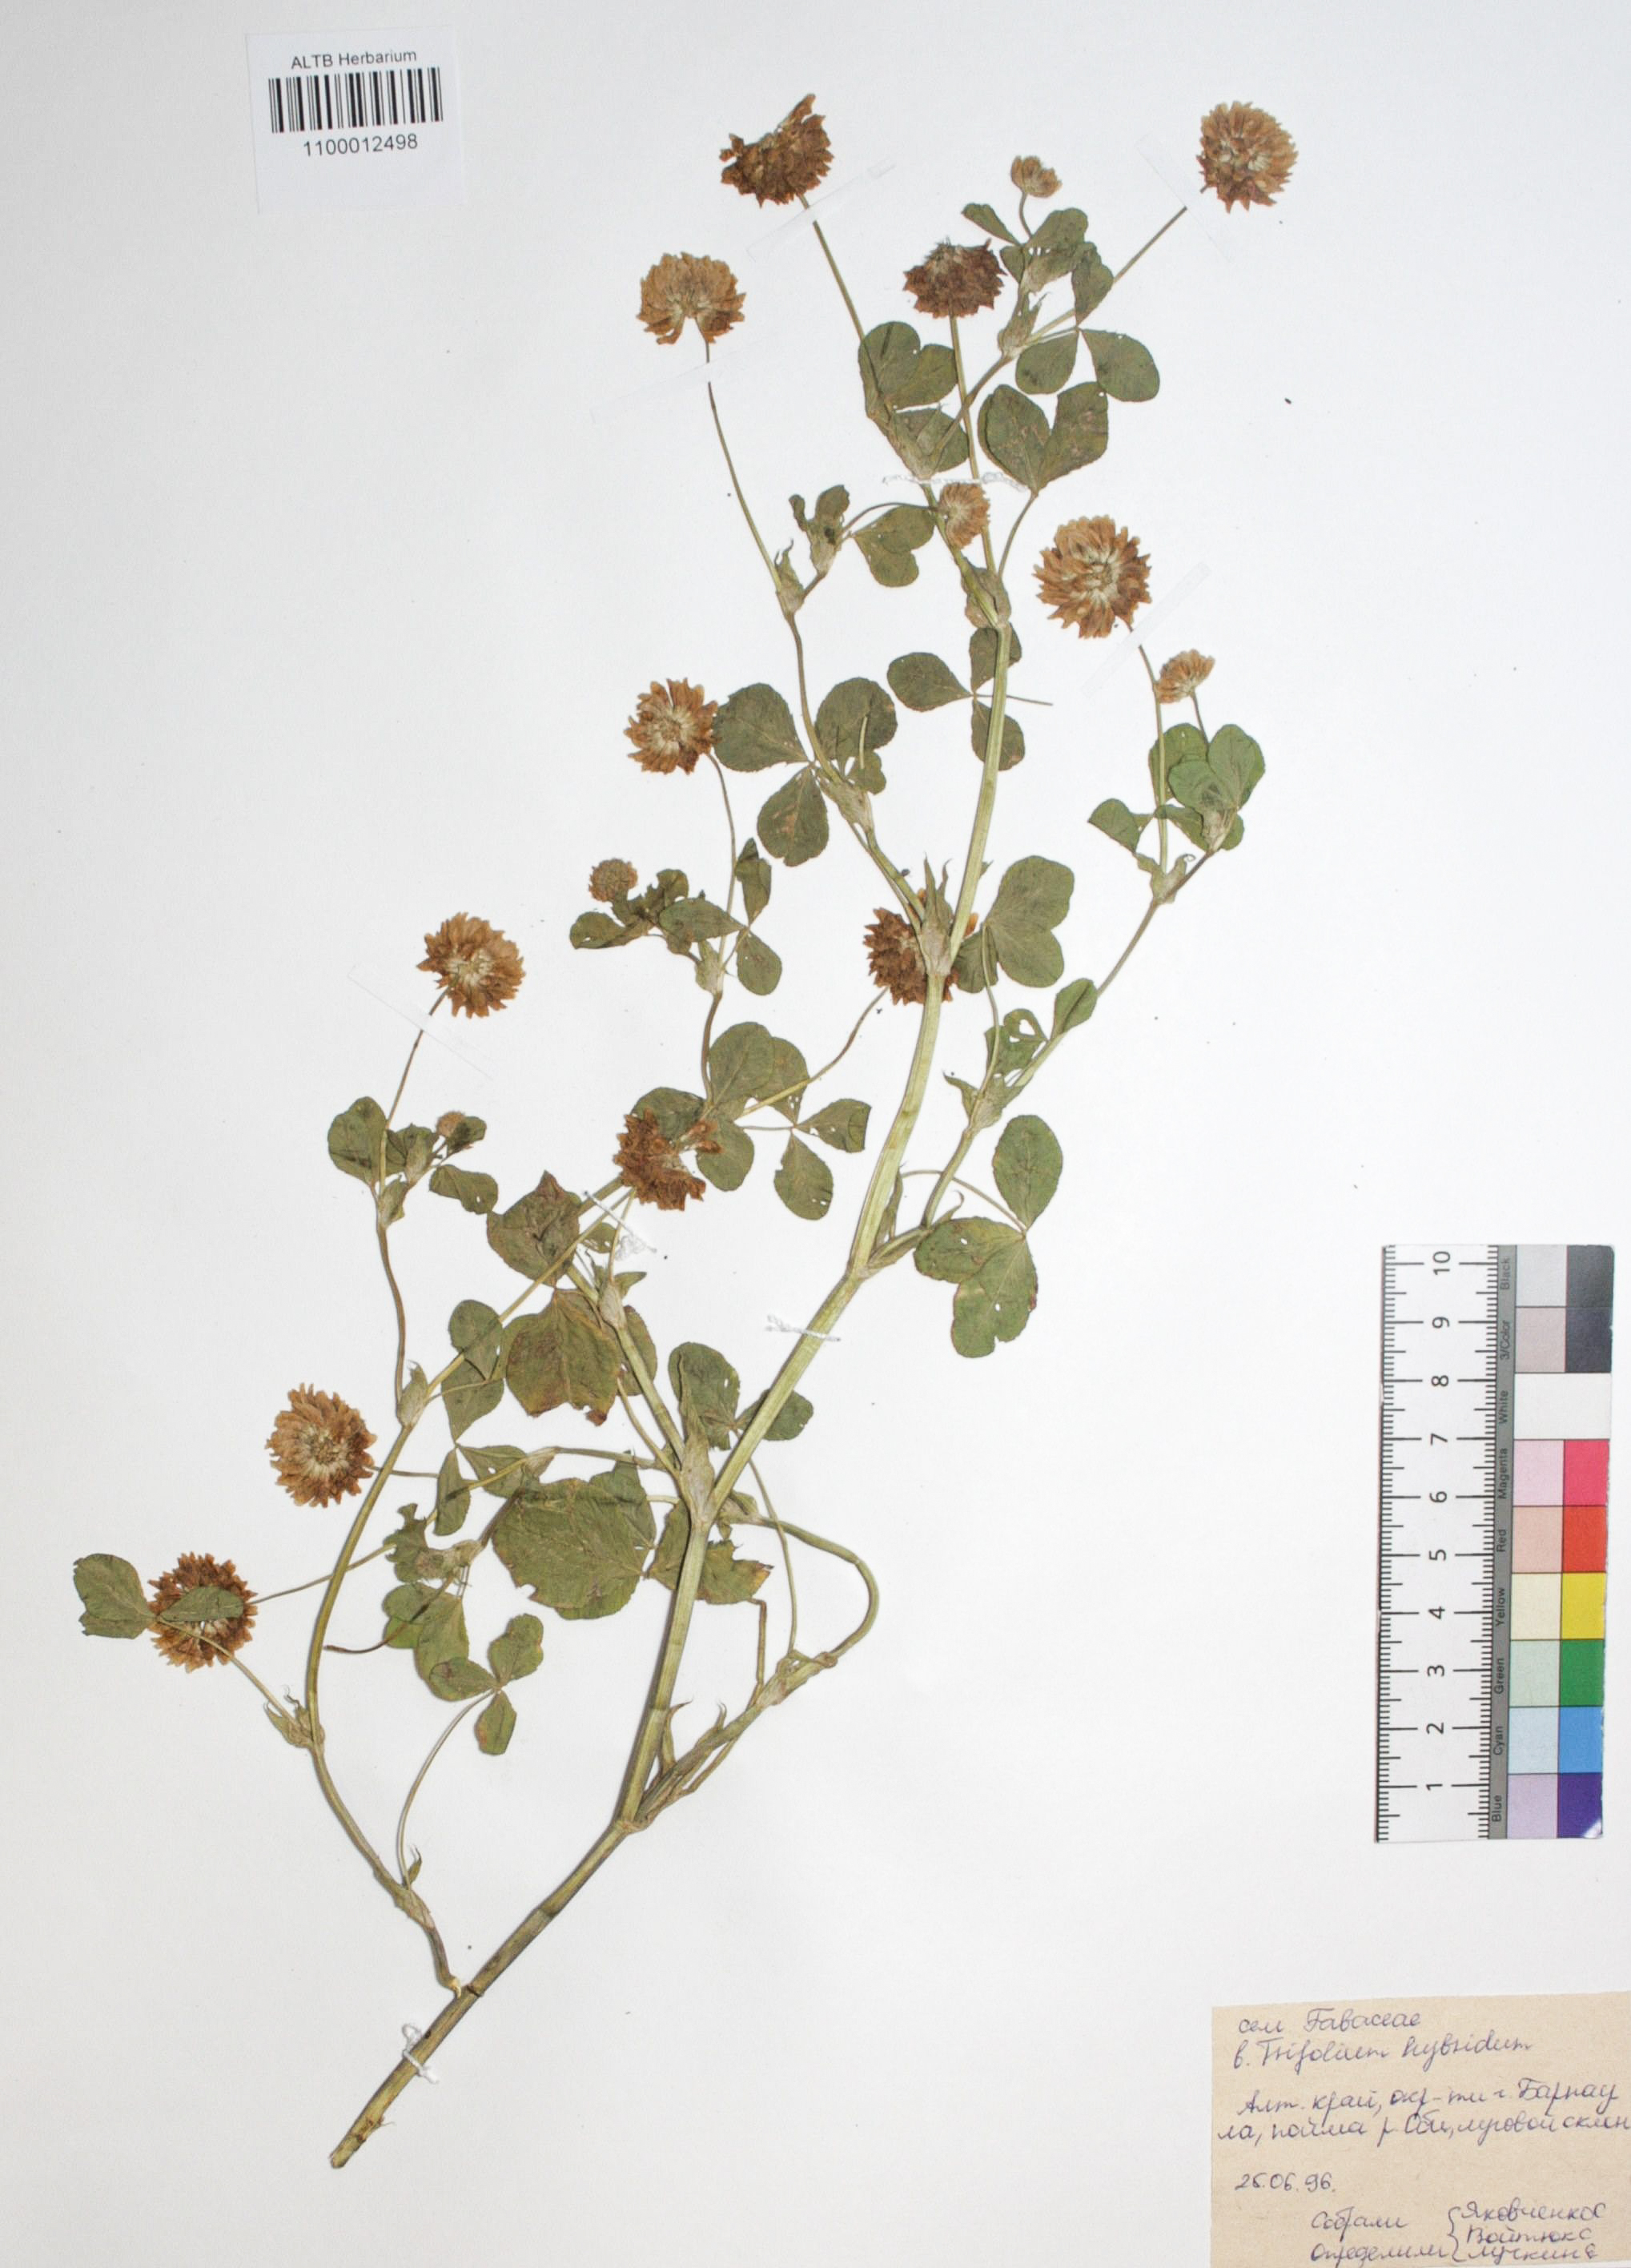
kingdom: Plantae
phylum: Tracheophyta
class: Magnoliopsida
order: Fabales
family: Fabaceae
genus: Trifolium
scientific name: Trifolium hybridum
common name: Alsike clover
